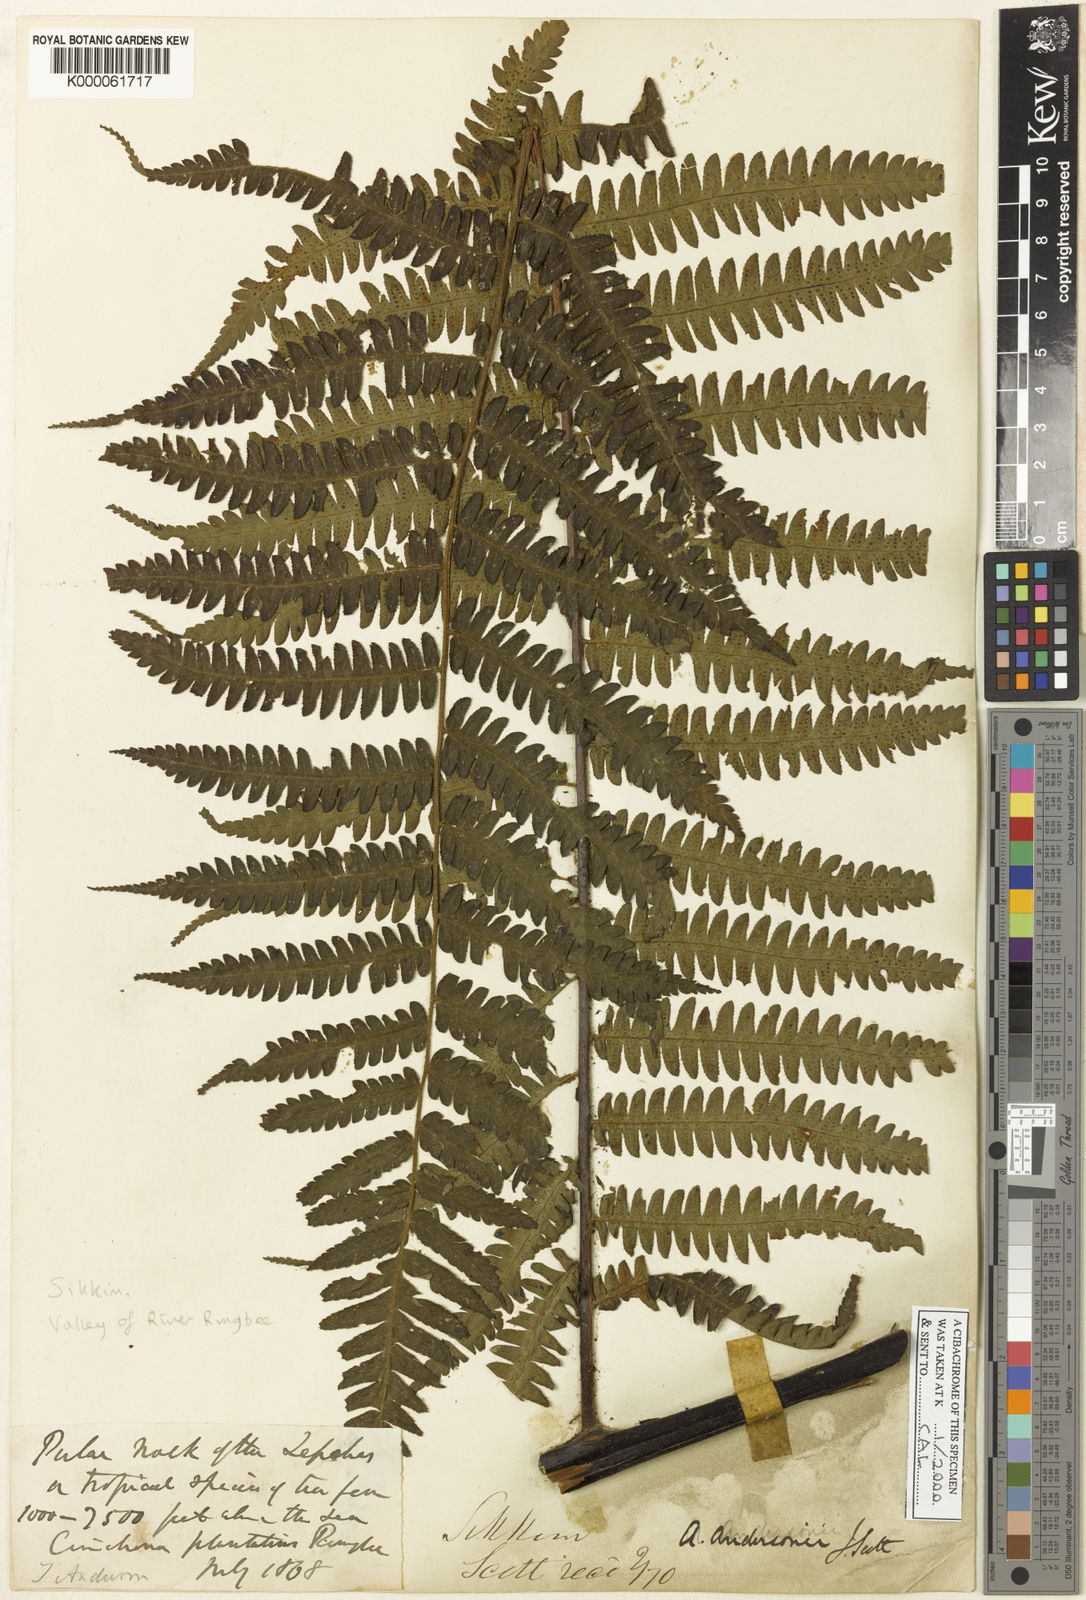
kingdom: Plantae
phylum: Tracheophyta
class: Polypodiopsida
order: Cyatheales
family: Cyatheaceae
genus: Gymnosphaera
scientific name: Gymnosphaera andersonii
